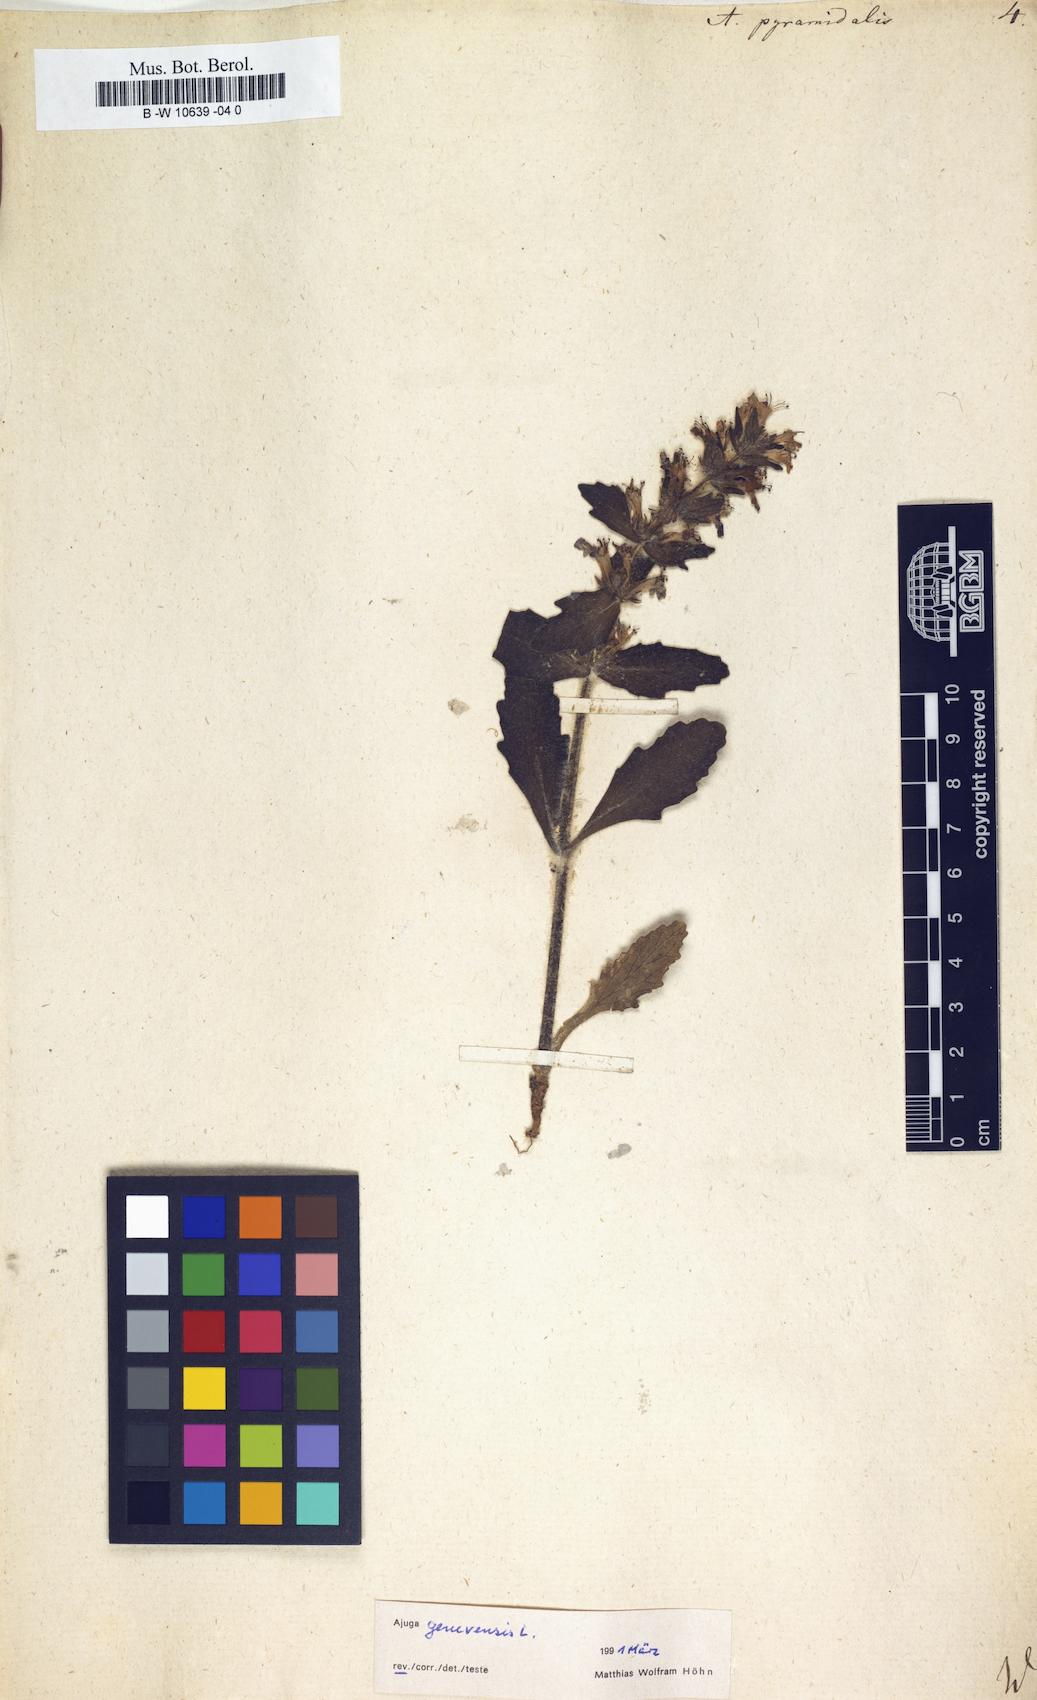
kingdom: Plantae
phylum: Tracheophyta
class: Magnoliopsida
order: Lamiales
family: Lamiaceae
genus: Ajuga
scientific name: Ajuga pyramidalis
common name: Pyramid bugle
